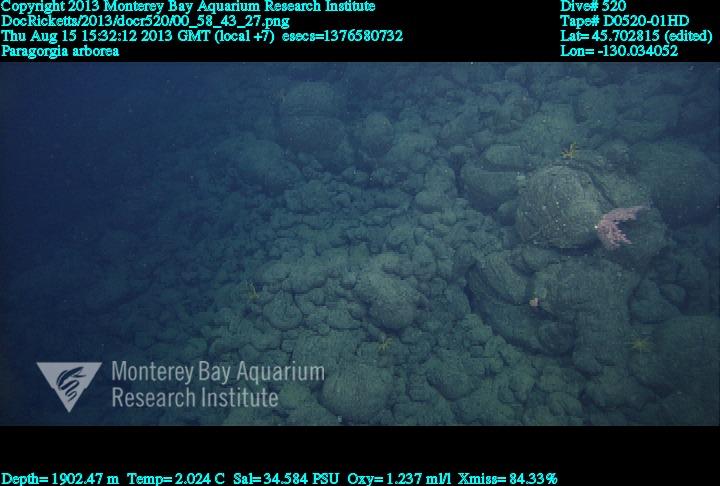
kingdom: Animalia
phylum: Cnidaria
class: Anthozoa
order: Scleralcyonacea
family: Coralliidae
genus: Paragorgia
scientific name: Paragorgia arborea
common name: Bubble gum coral
